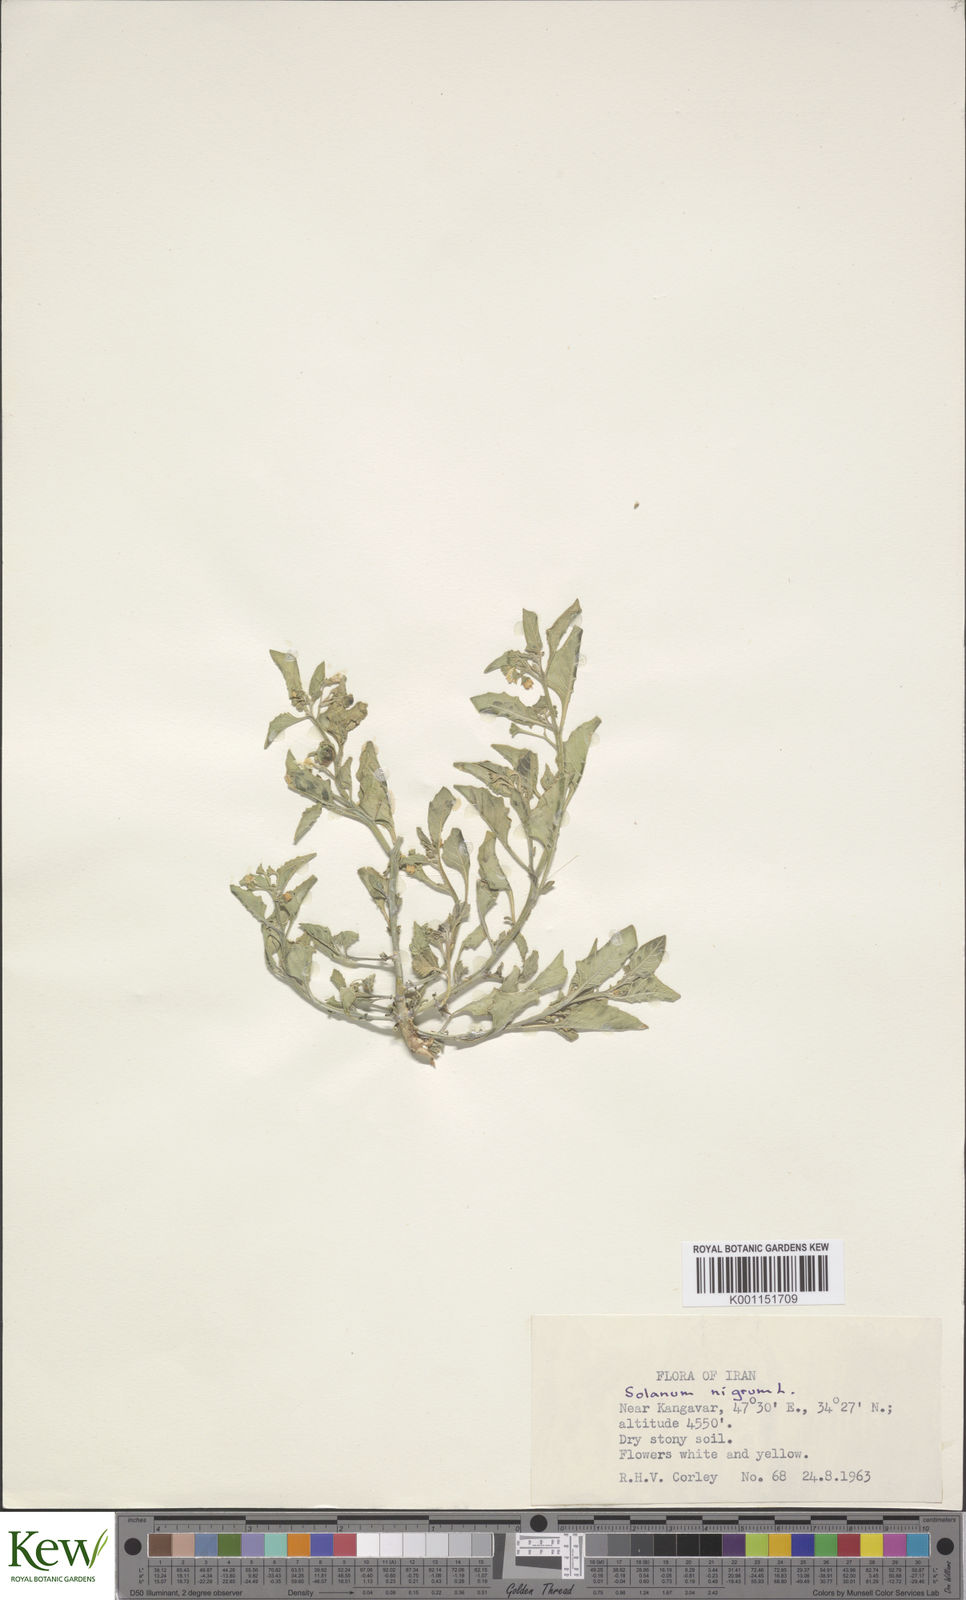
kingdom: Plantae
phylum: Tracheophyta
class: Magnoliopsida
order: Solanales
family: Solanaceae
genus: Solanum
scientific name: Solanum nigrum
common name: Black nightshade
